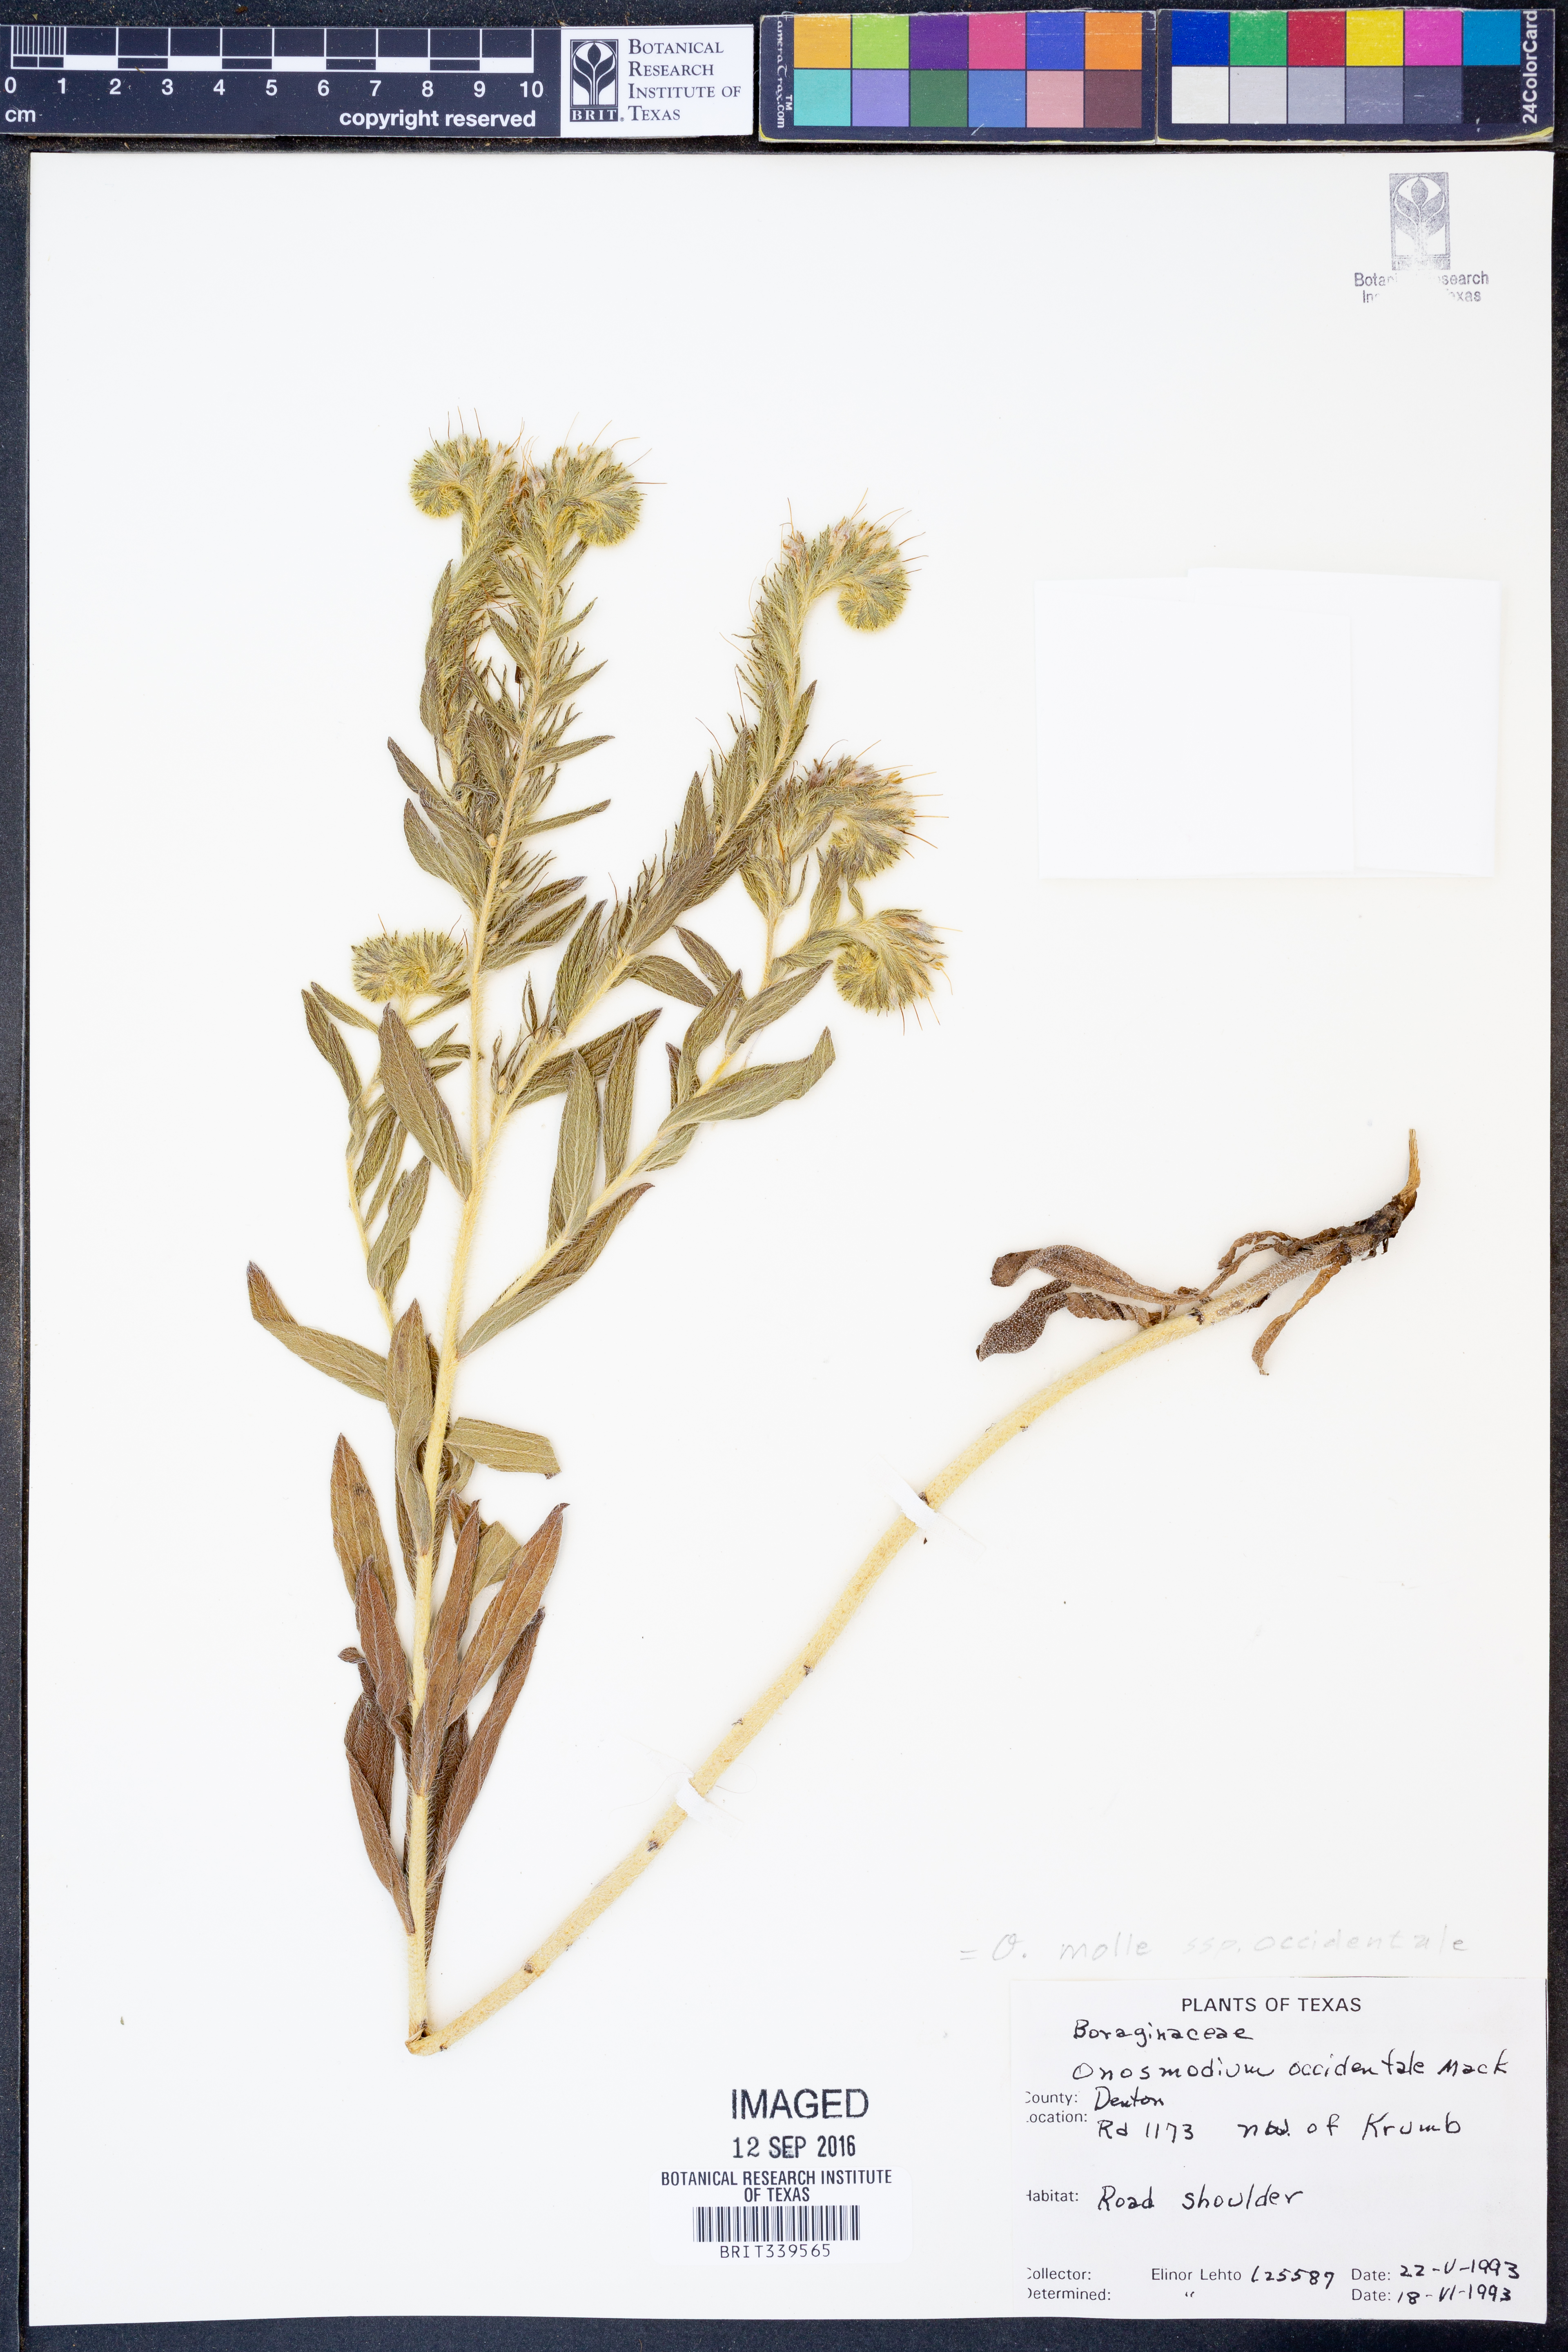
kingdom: Plantae
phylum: Tracheophyta
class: Magnoliopsida
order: Boraginales
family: Boraginaceae
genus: Lithospermum
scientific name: Lithospermum occidentale
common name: Western false gromwell
